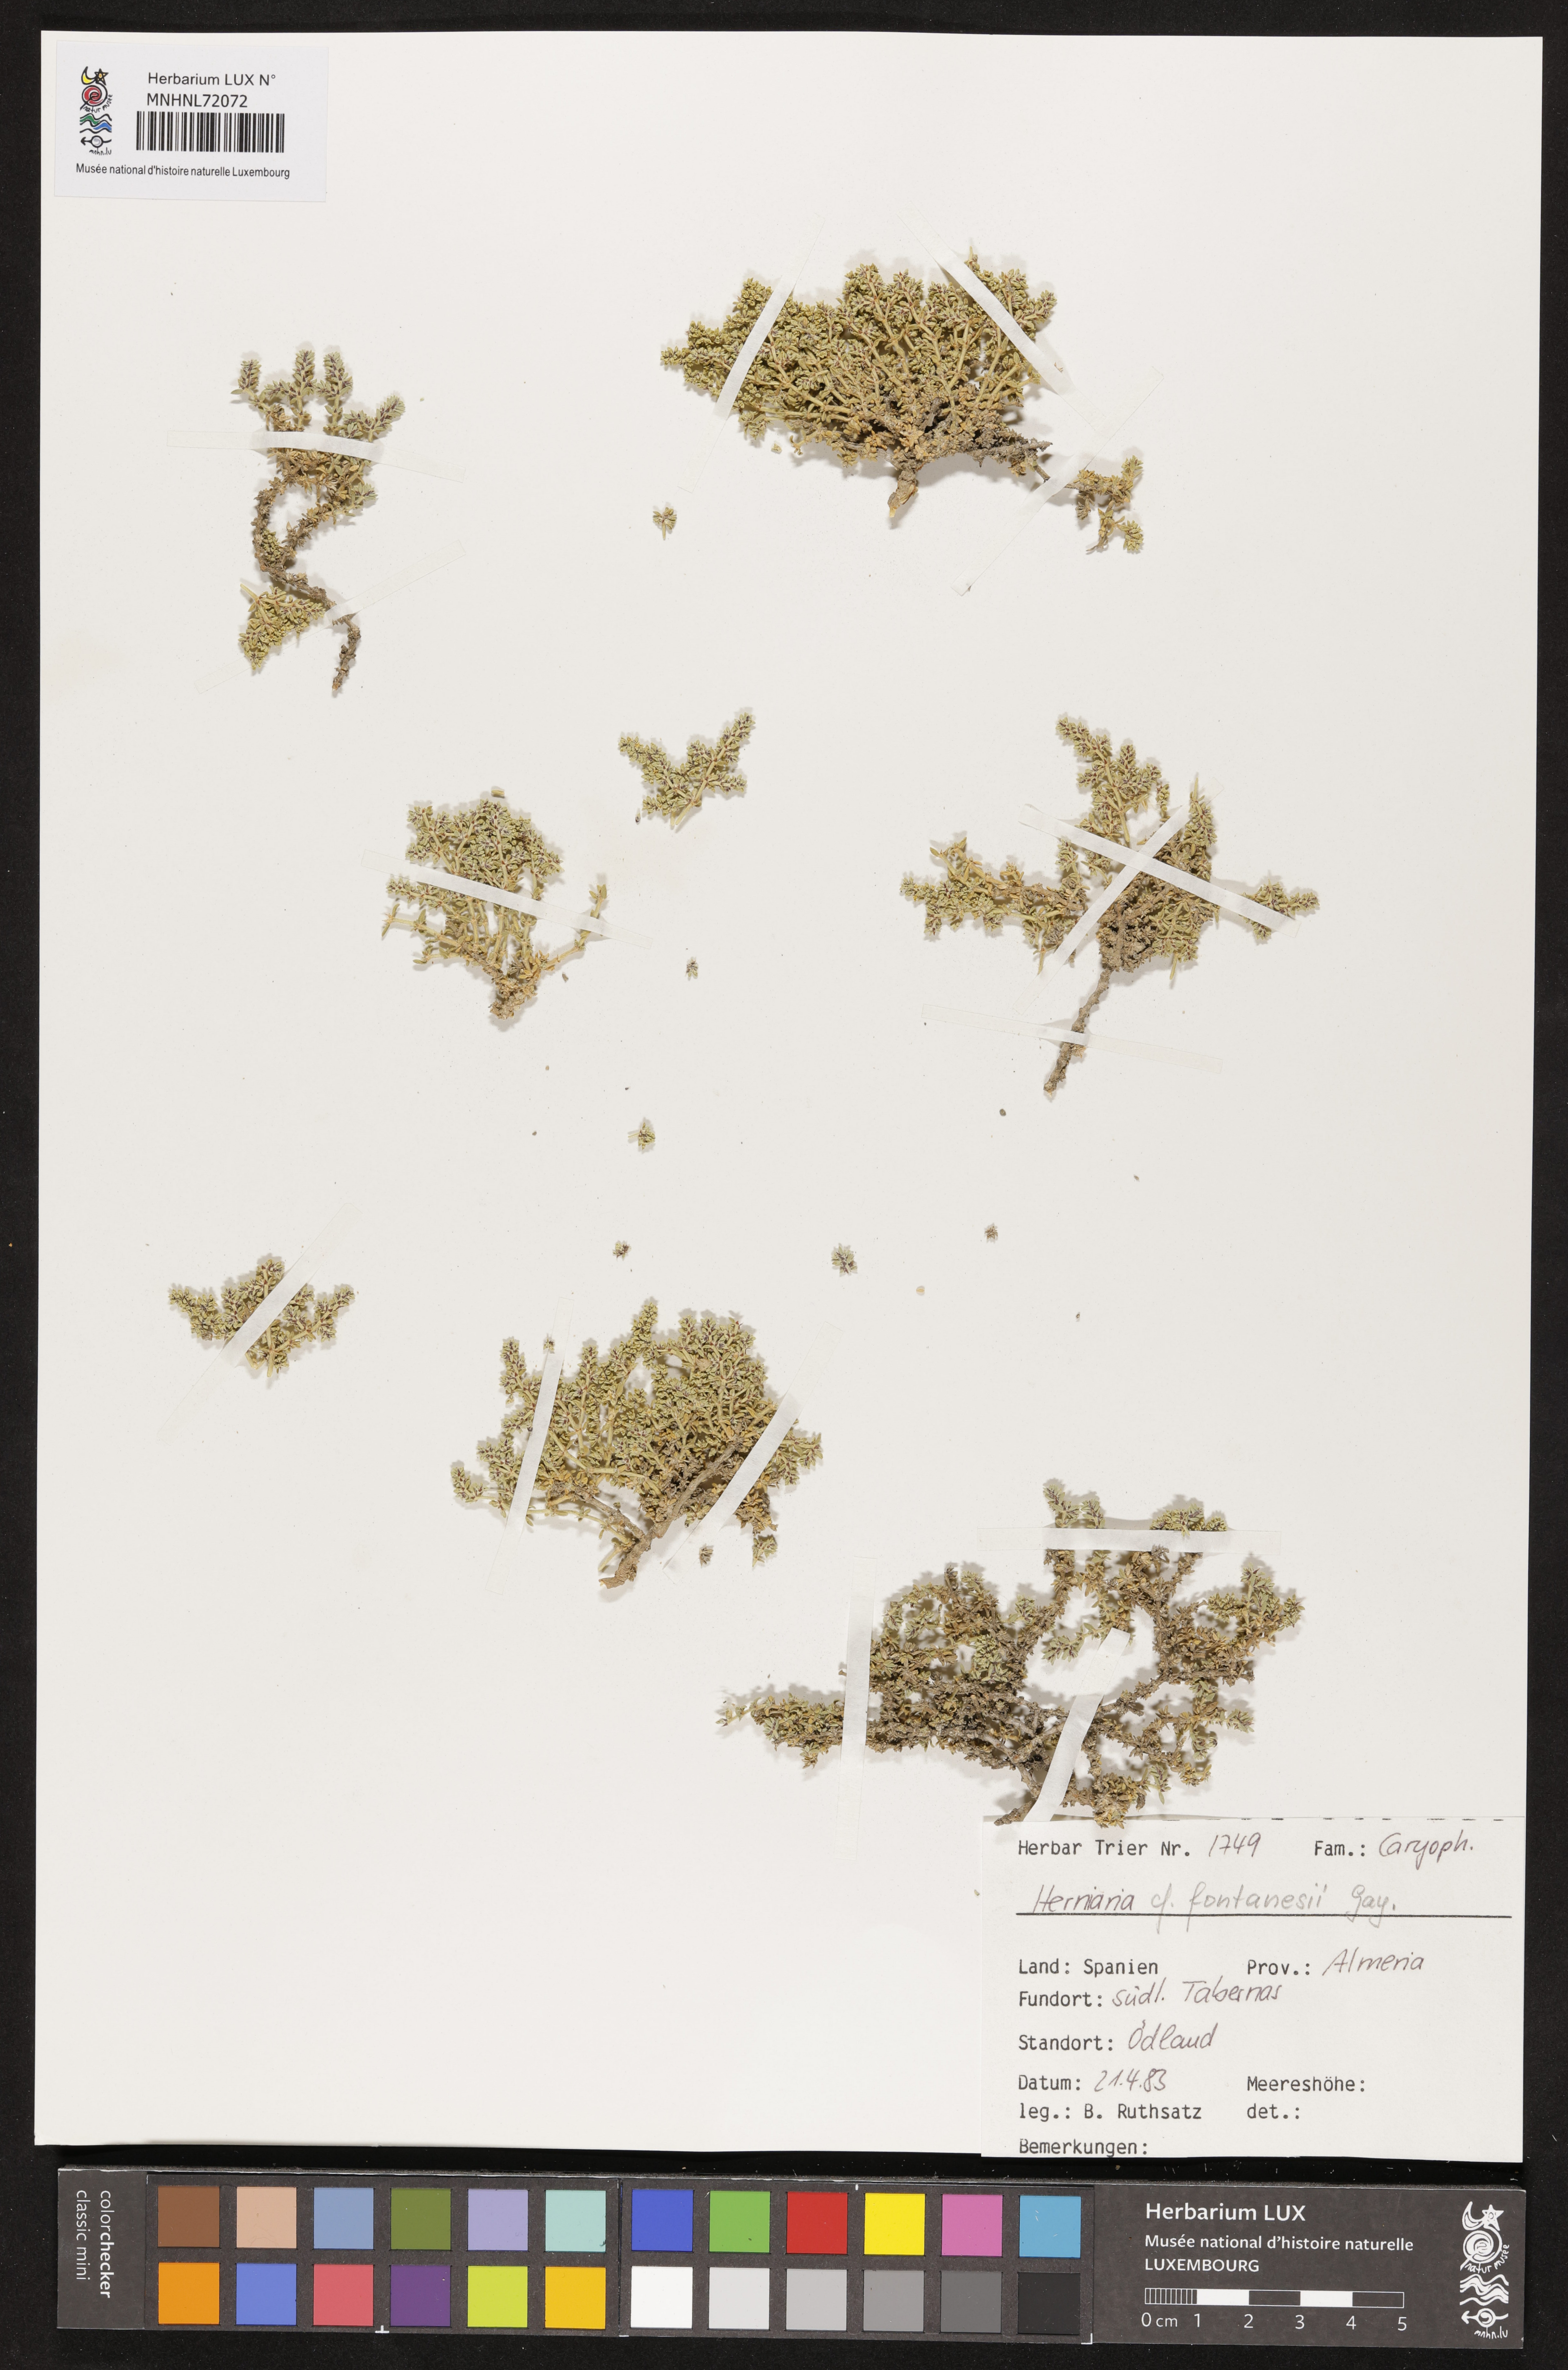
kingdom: Plantae
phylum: Tracheophyta
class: Magnoliopsida
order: Caryophyllales
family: Caryophyllaceae
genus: Herniaria
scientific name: Herniaria fontanesii
